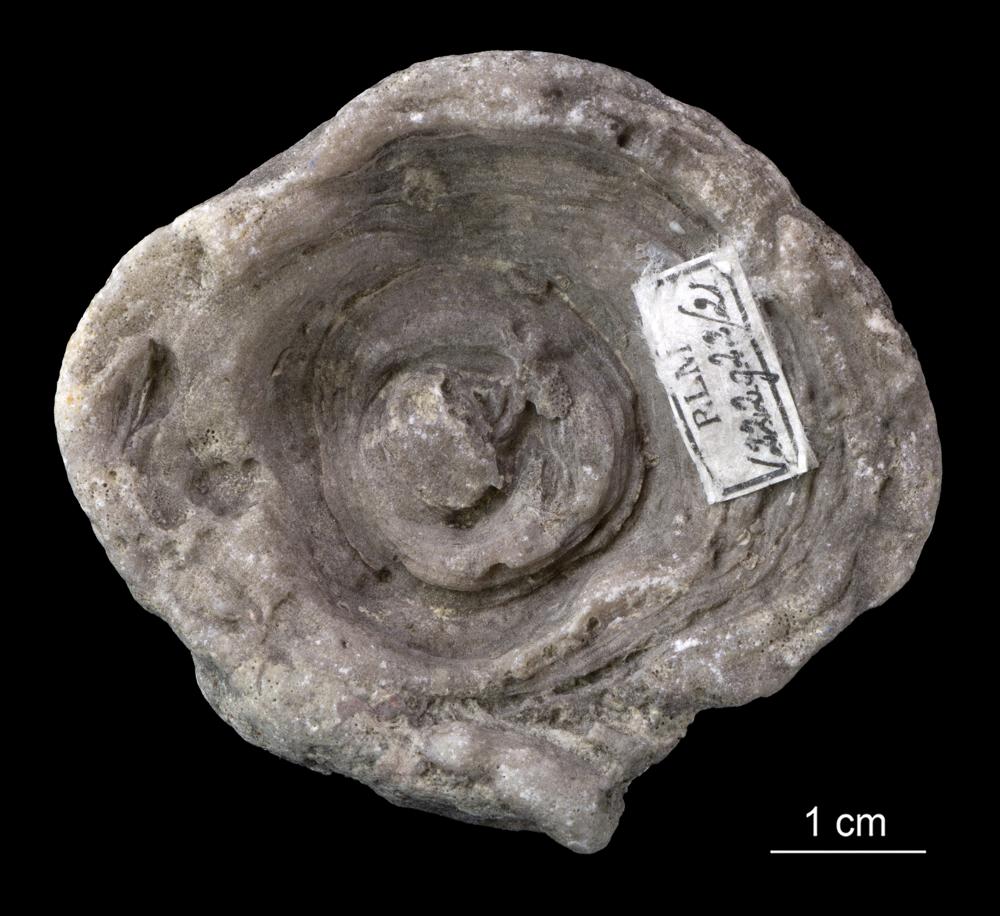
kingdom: Animalia
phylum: Cnidaria
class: Anthozoa
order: Heliolitina
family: Heliolitidae
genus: Heliolites
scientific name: Heliolites
